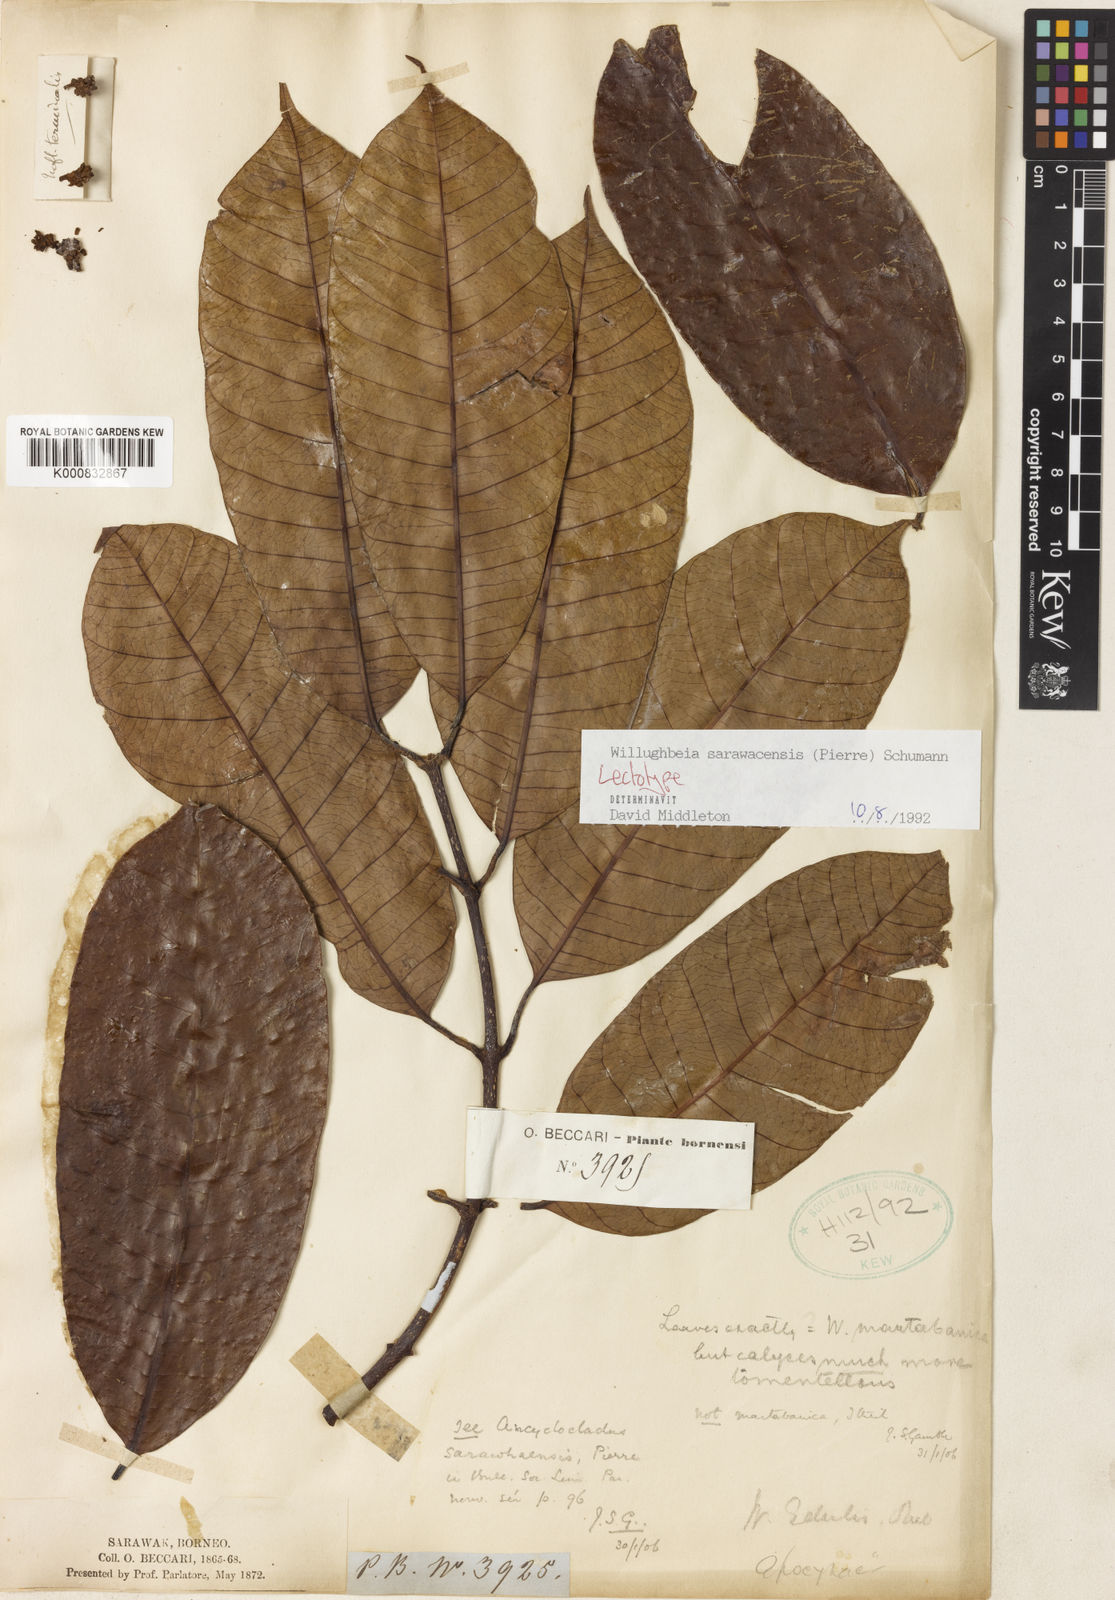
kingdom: Plantae
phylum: Tracheophyta
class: Magnoliopsida
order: Gentianales
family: Apocynaceae
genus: Willughbeia
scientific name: Willughbeia sarawacensis
